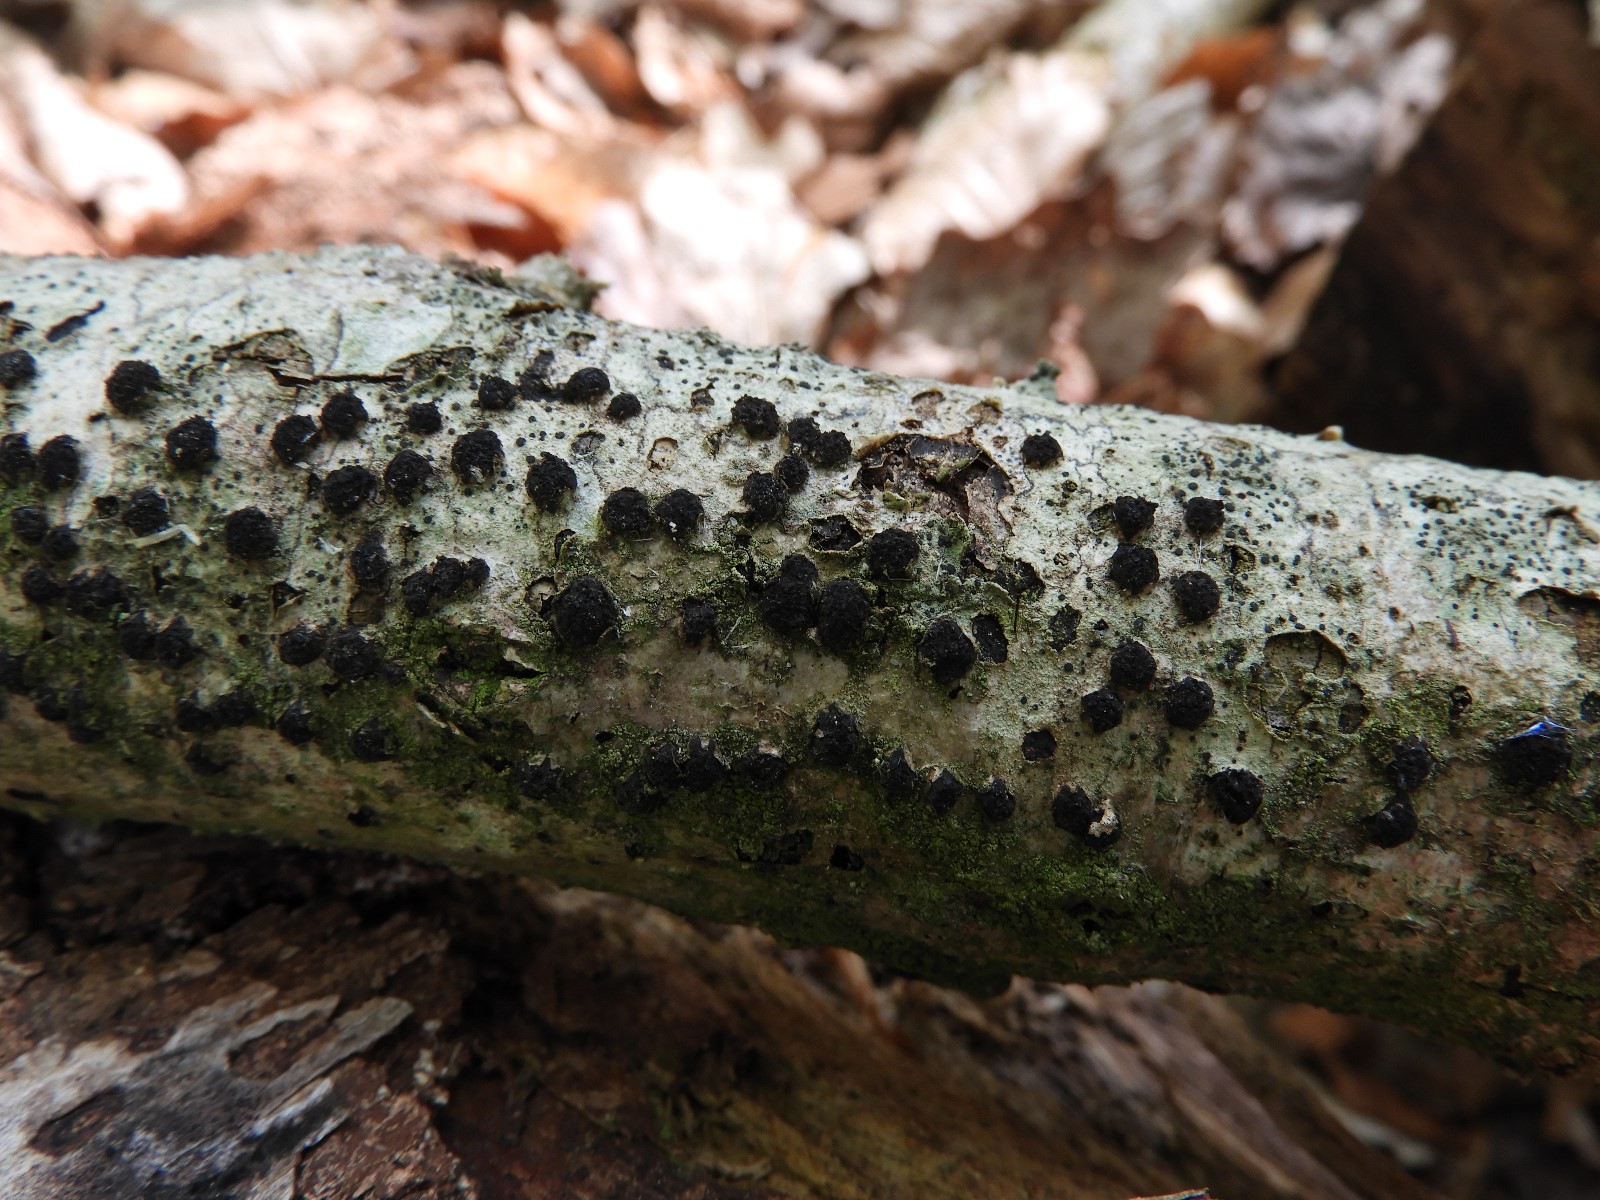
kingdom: Fungi
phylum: Ascomycota
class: Sordariomycetes
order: Xylariales
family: Diatrypaceae
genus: Diatrypella
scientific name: Diatrypella quercina
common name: ege-kulskorpe
